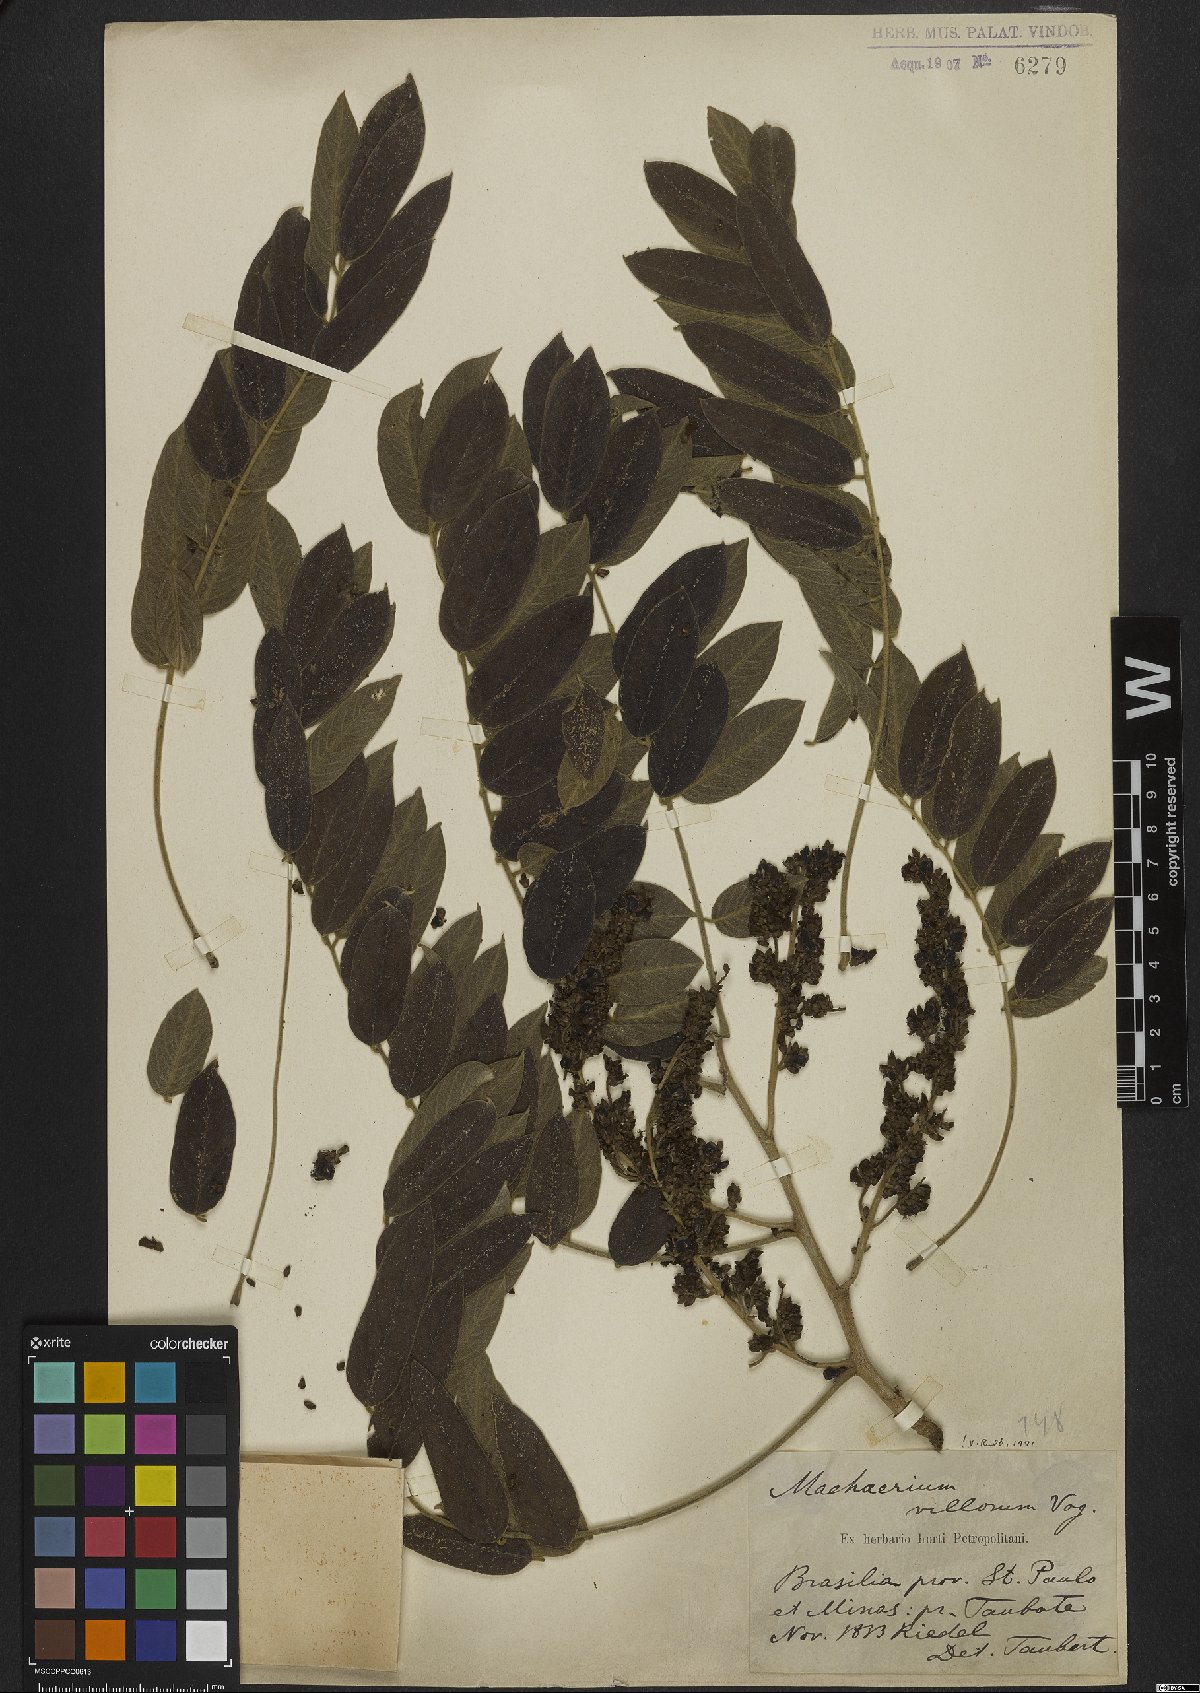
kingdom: Plantae
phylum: Tracheophyta
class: Magnoliopsida
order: Fabales
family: Fabaceae
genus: Machaerium
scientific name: Machaerium villosum
